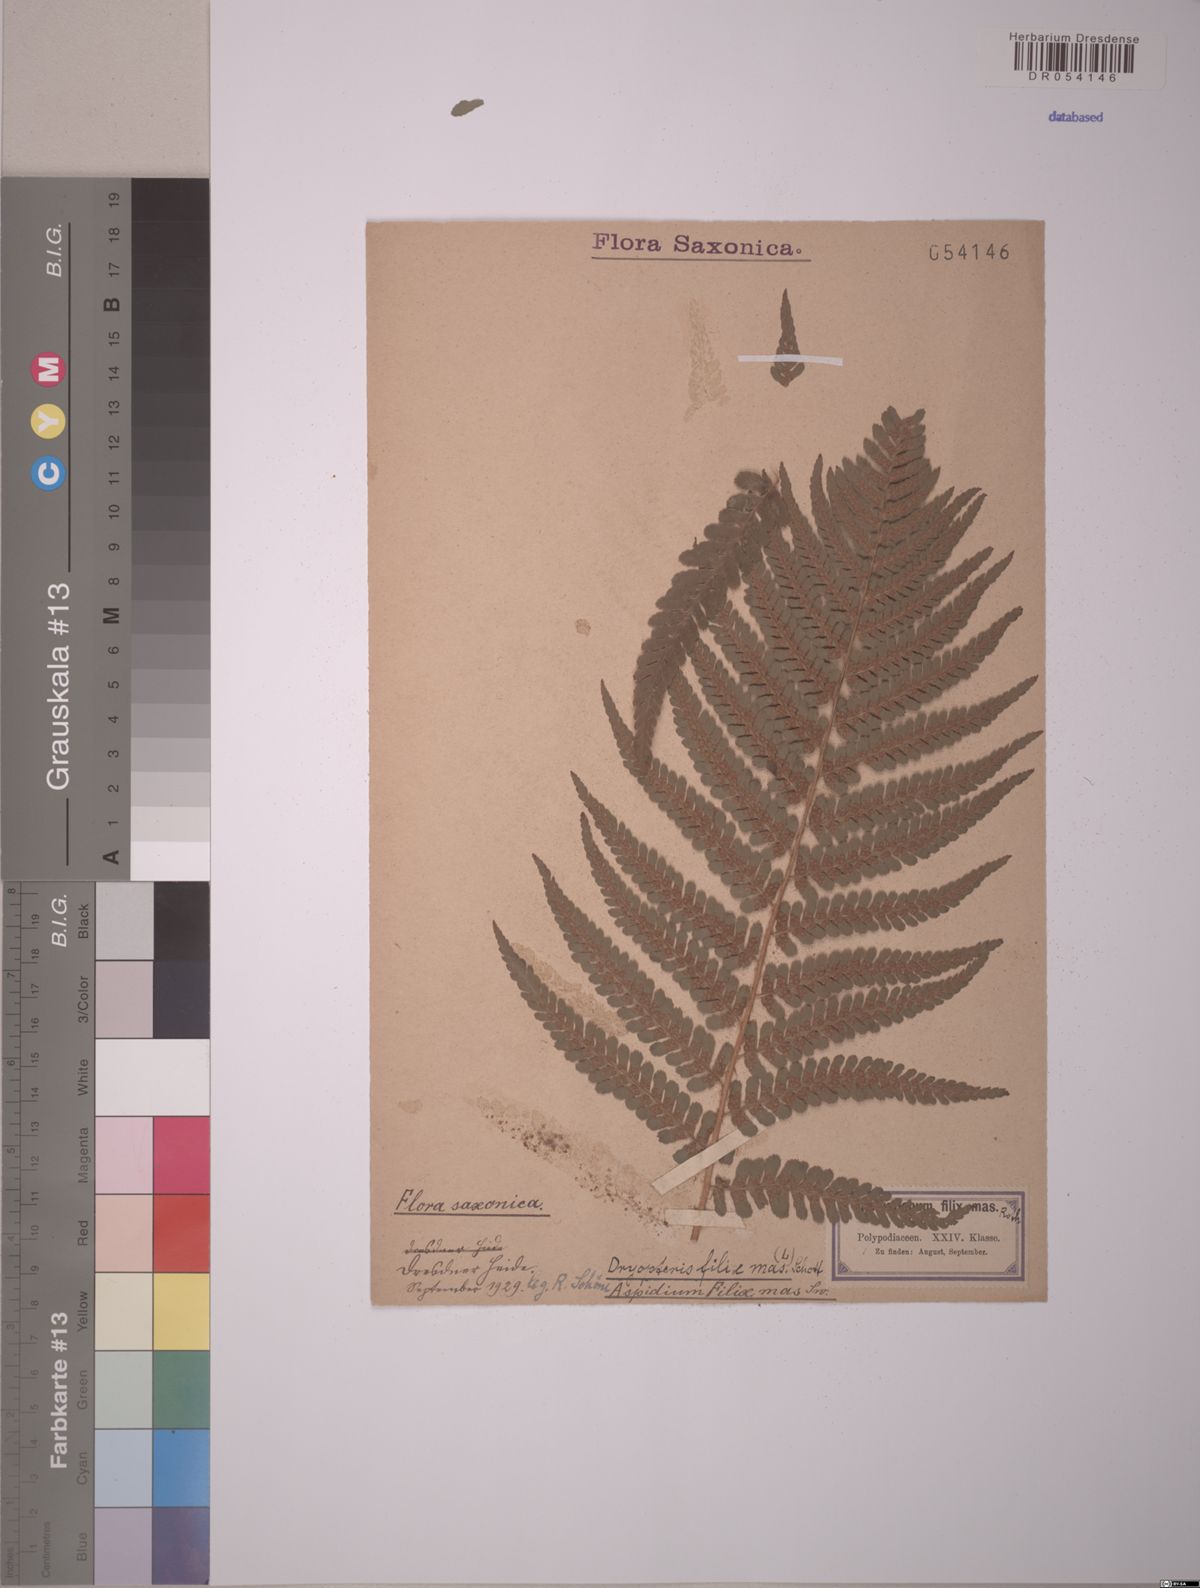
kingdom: Plantae
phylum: Tracheophyta
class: Polypodiopsida
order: Polypodiales
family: Dryopteridaceae
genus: Dryopteris
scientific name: Dryopteris filix-mas
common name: Male fern
